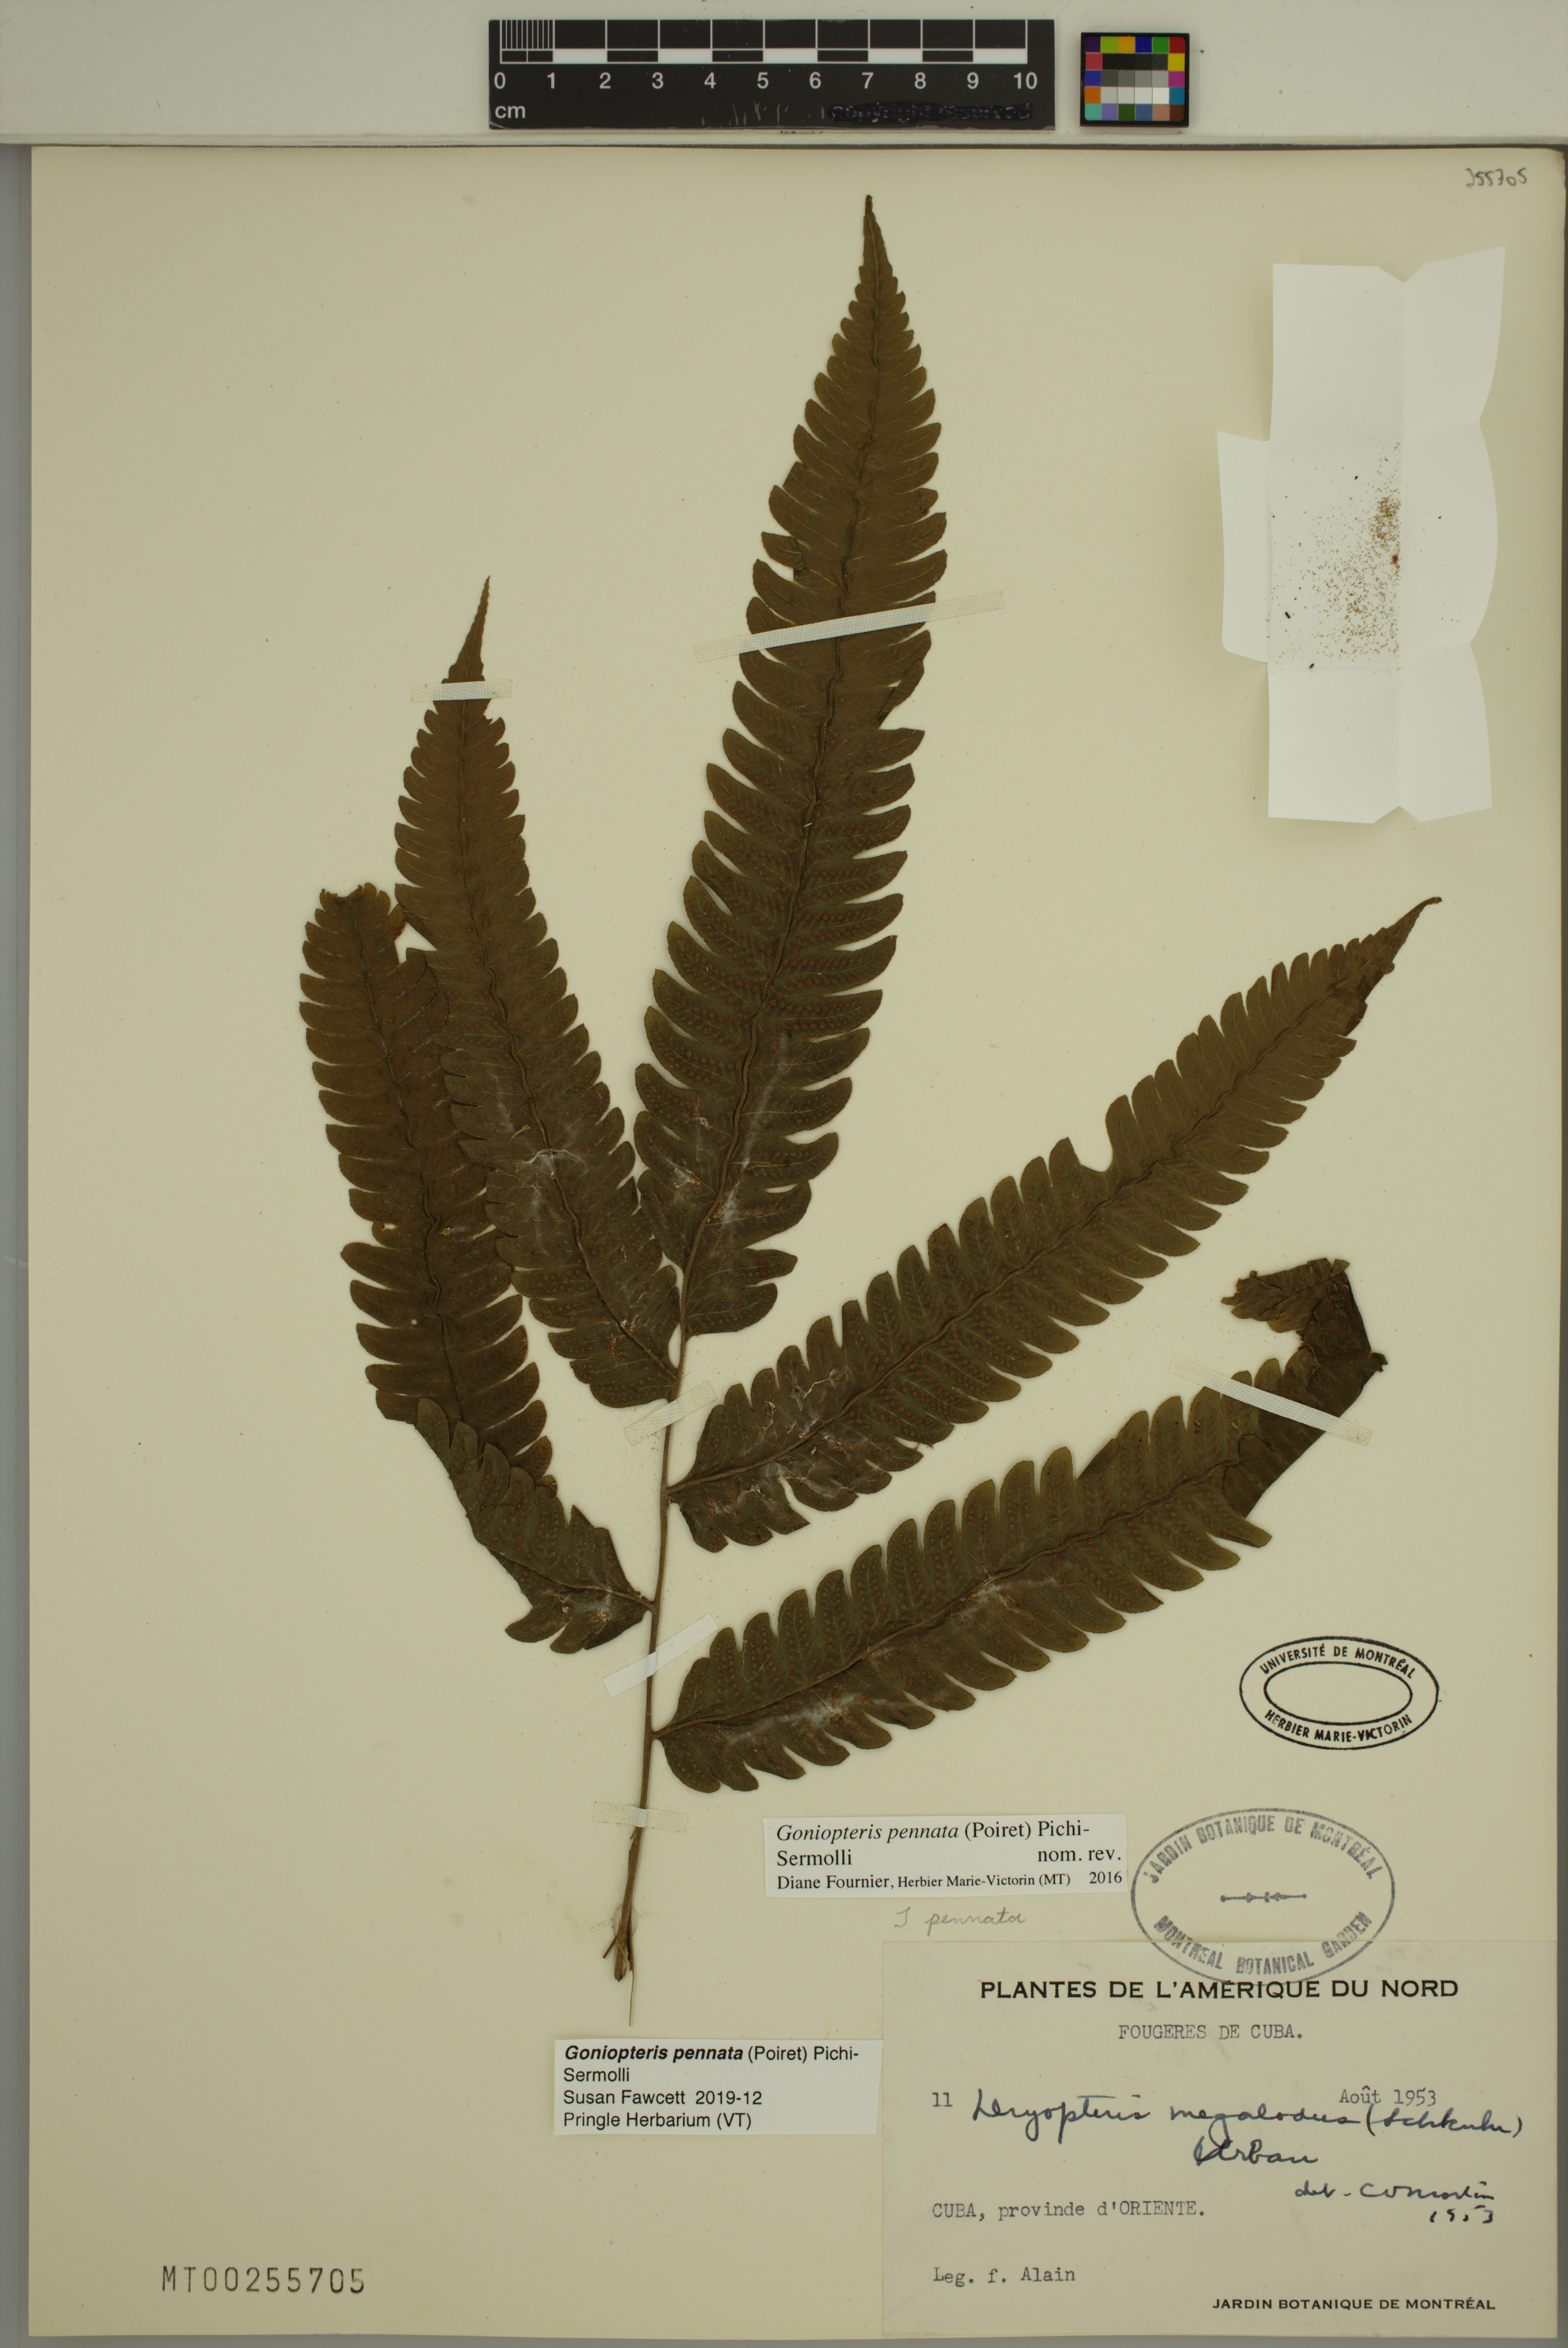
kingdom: Plantae
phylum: Tracheophyta
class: Polypodiopsida
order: Polypodiales
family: Thelypteridaceae
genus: Goniopteris
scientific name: Goniopteris pennata
